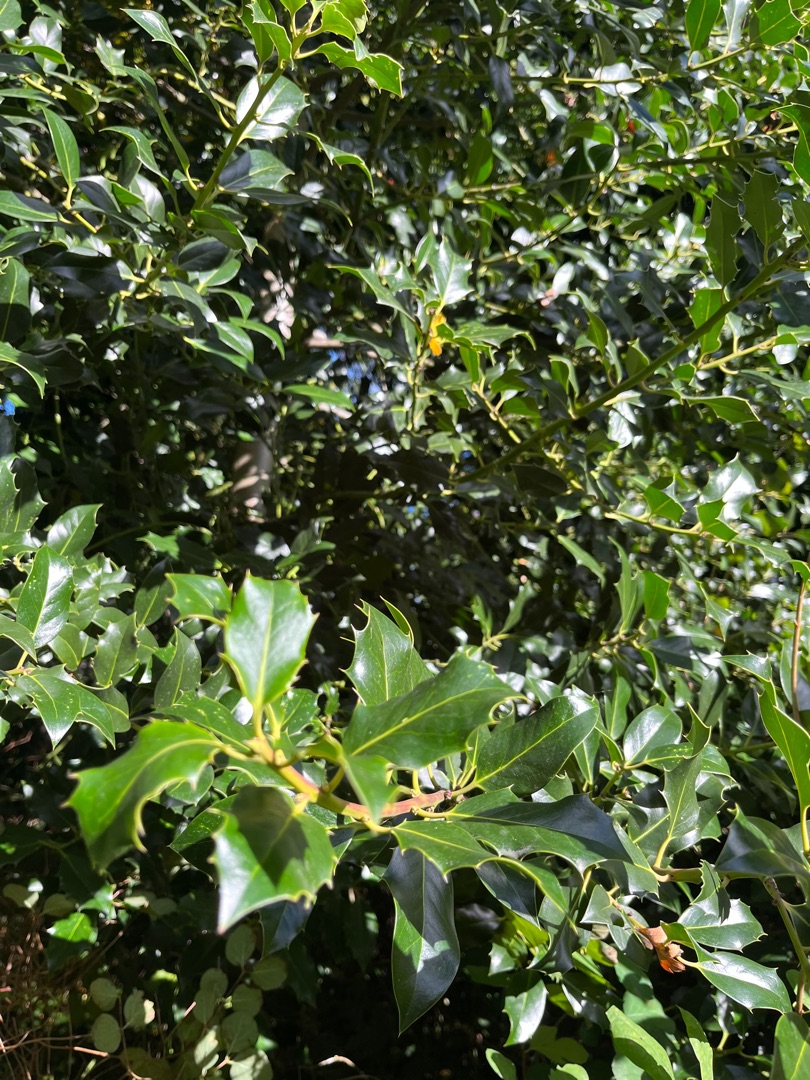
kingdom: Plantae
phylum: Tracheophyta
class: Magnoliopsida
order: Aquifoliales
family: Aquifoliaceae
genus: Ilex
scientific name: Ilex aquifolium
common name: Kristtorn
